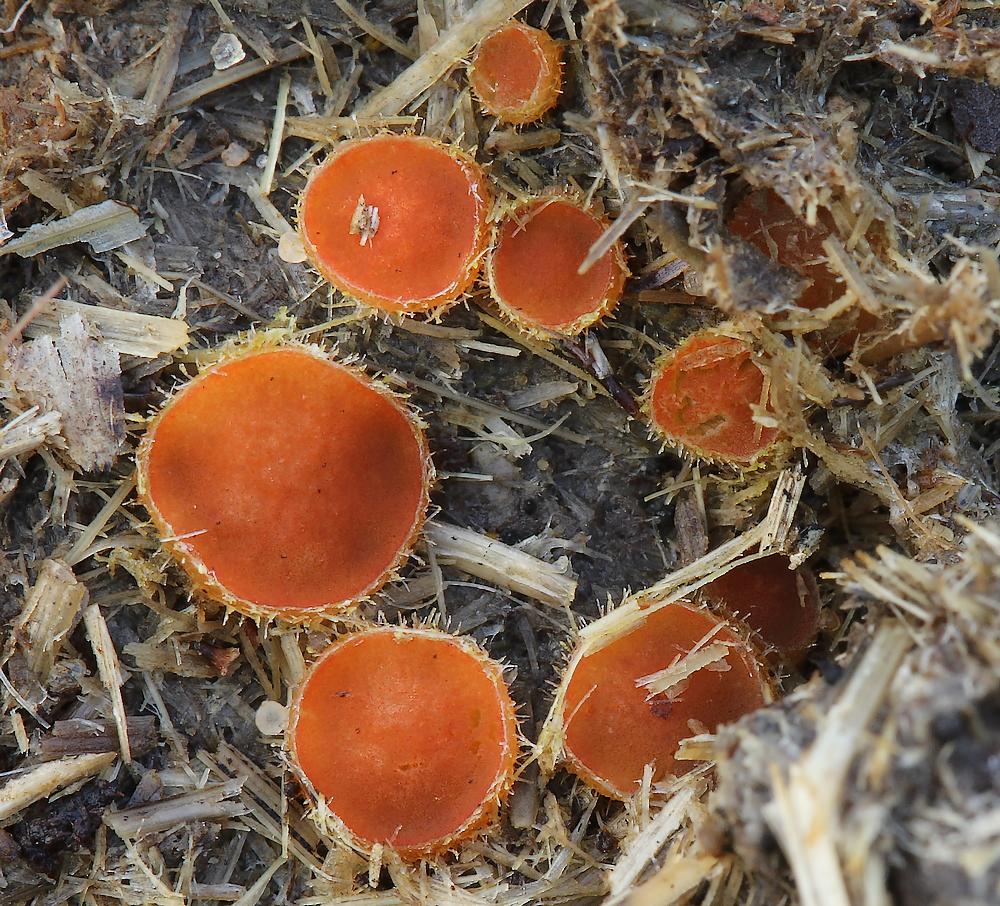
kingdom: Fungi
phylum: Ascomycota
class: Pezizomycetes
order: Pezizales
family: Pyronemataceae
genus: Cheilymenia
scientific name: Cheilymenia
